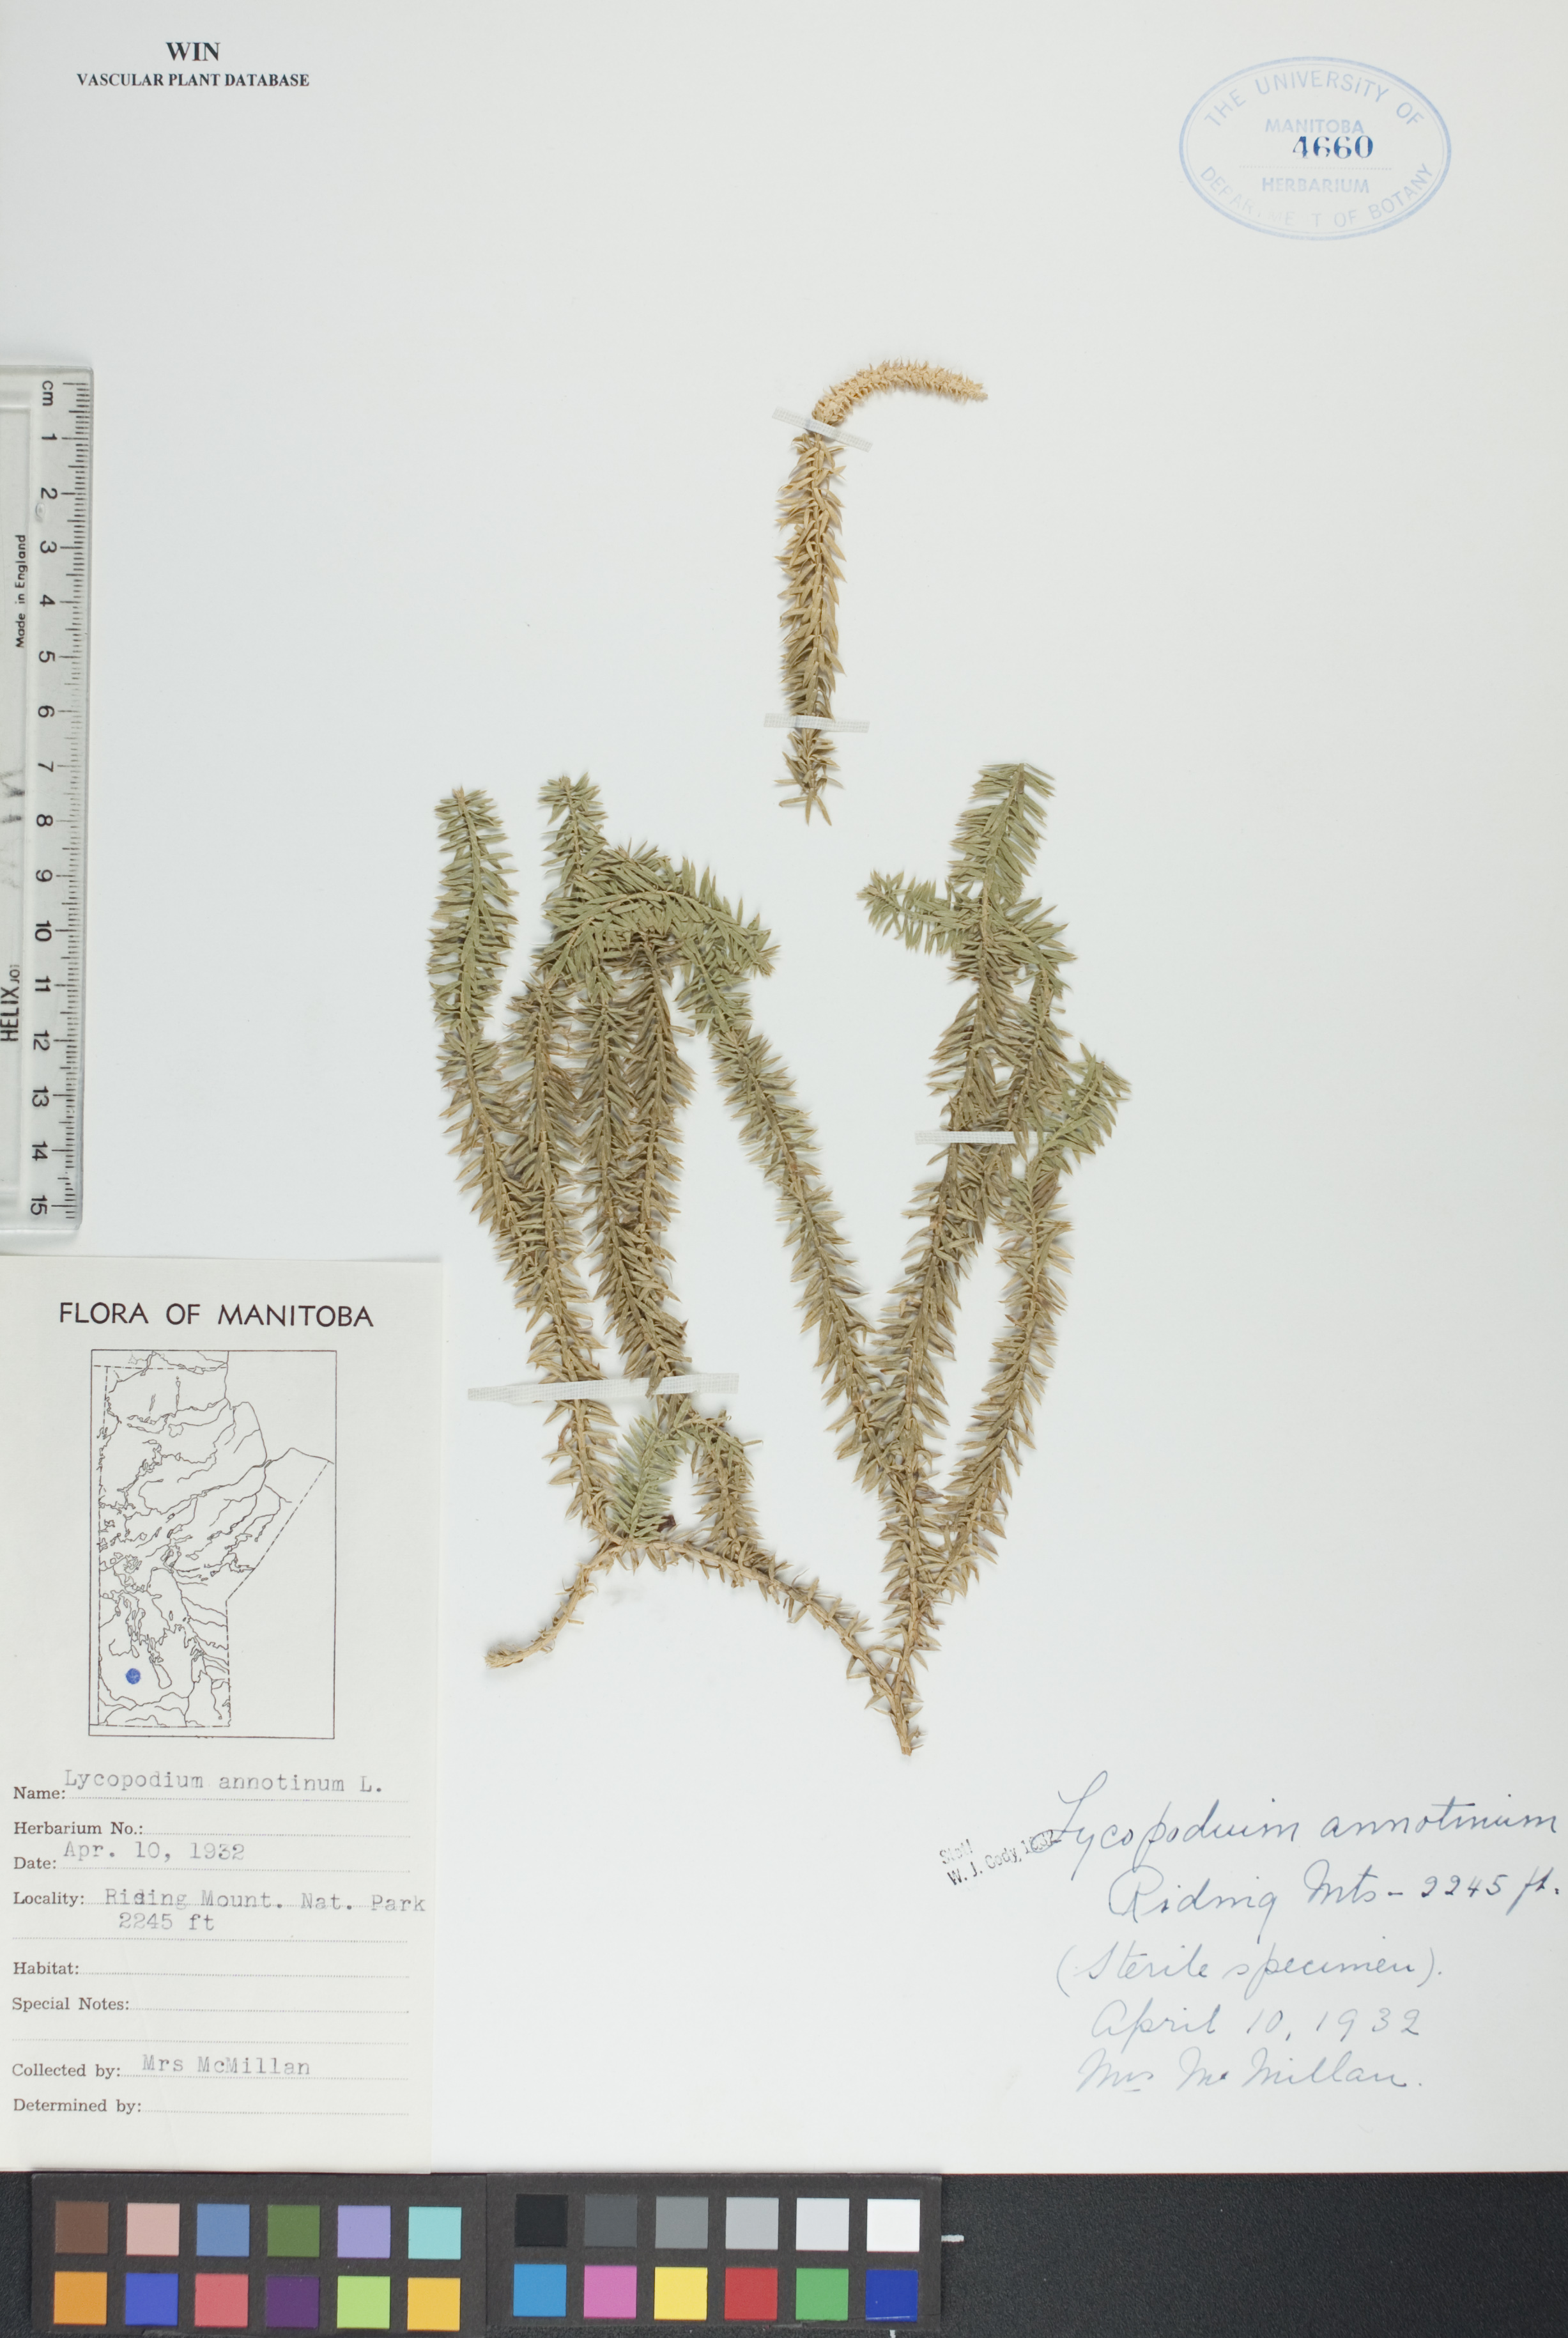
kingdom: Plantae
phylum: Tracheophyta
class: Lycopodiopsida
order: Lycopodiales
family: Lycopodiaceae
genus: Spinulum
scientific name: Spinulum annotinum
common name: Interrupted club-moss
